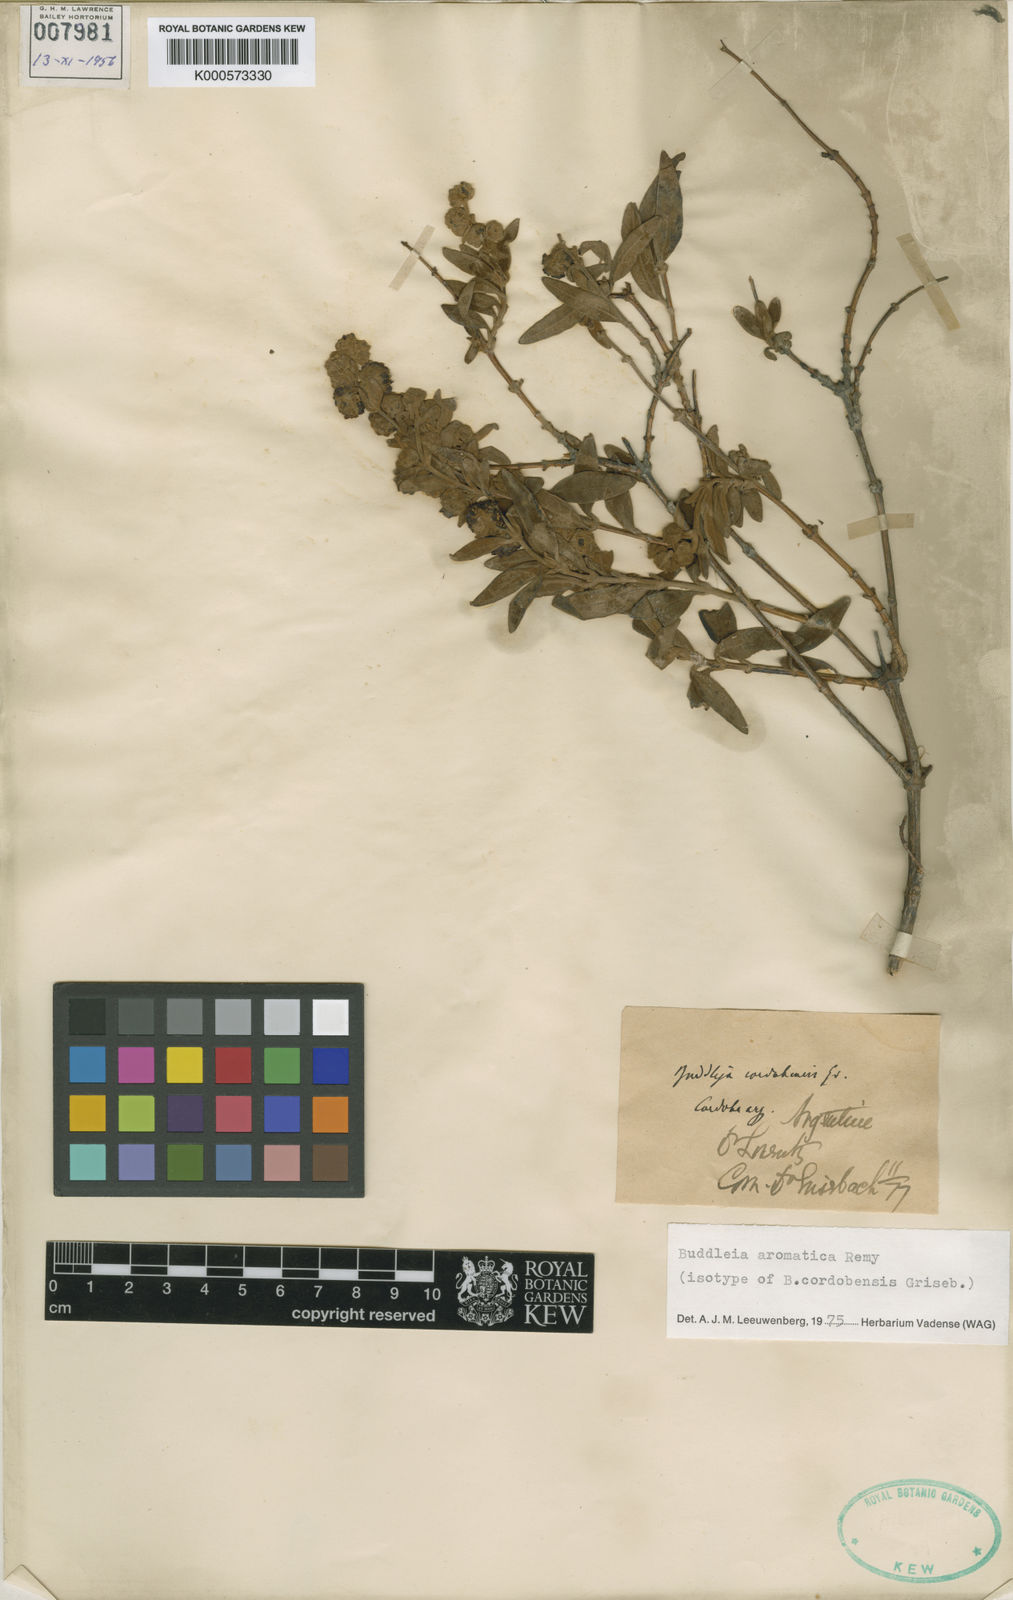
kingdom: Plantae
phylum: Tracheophyta
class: Magnoliopsida
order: Lamiales
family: Scrophulariaceae
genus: Buddleja
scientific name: Buddleja
